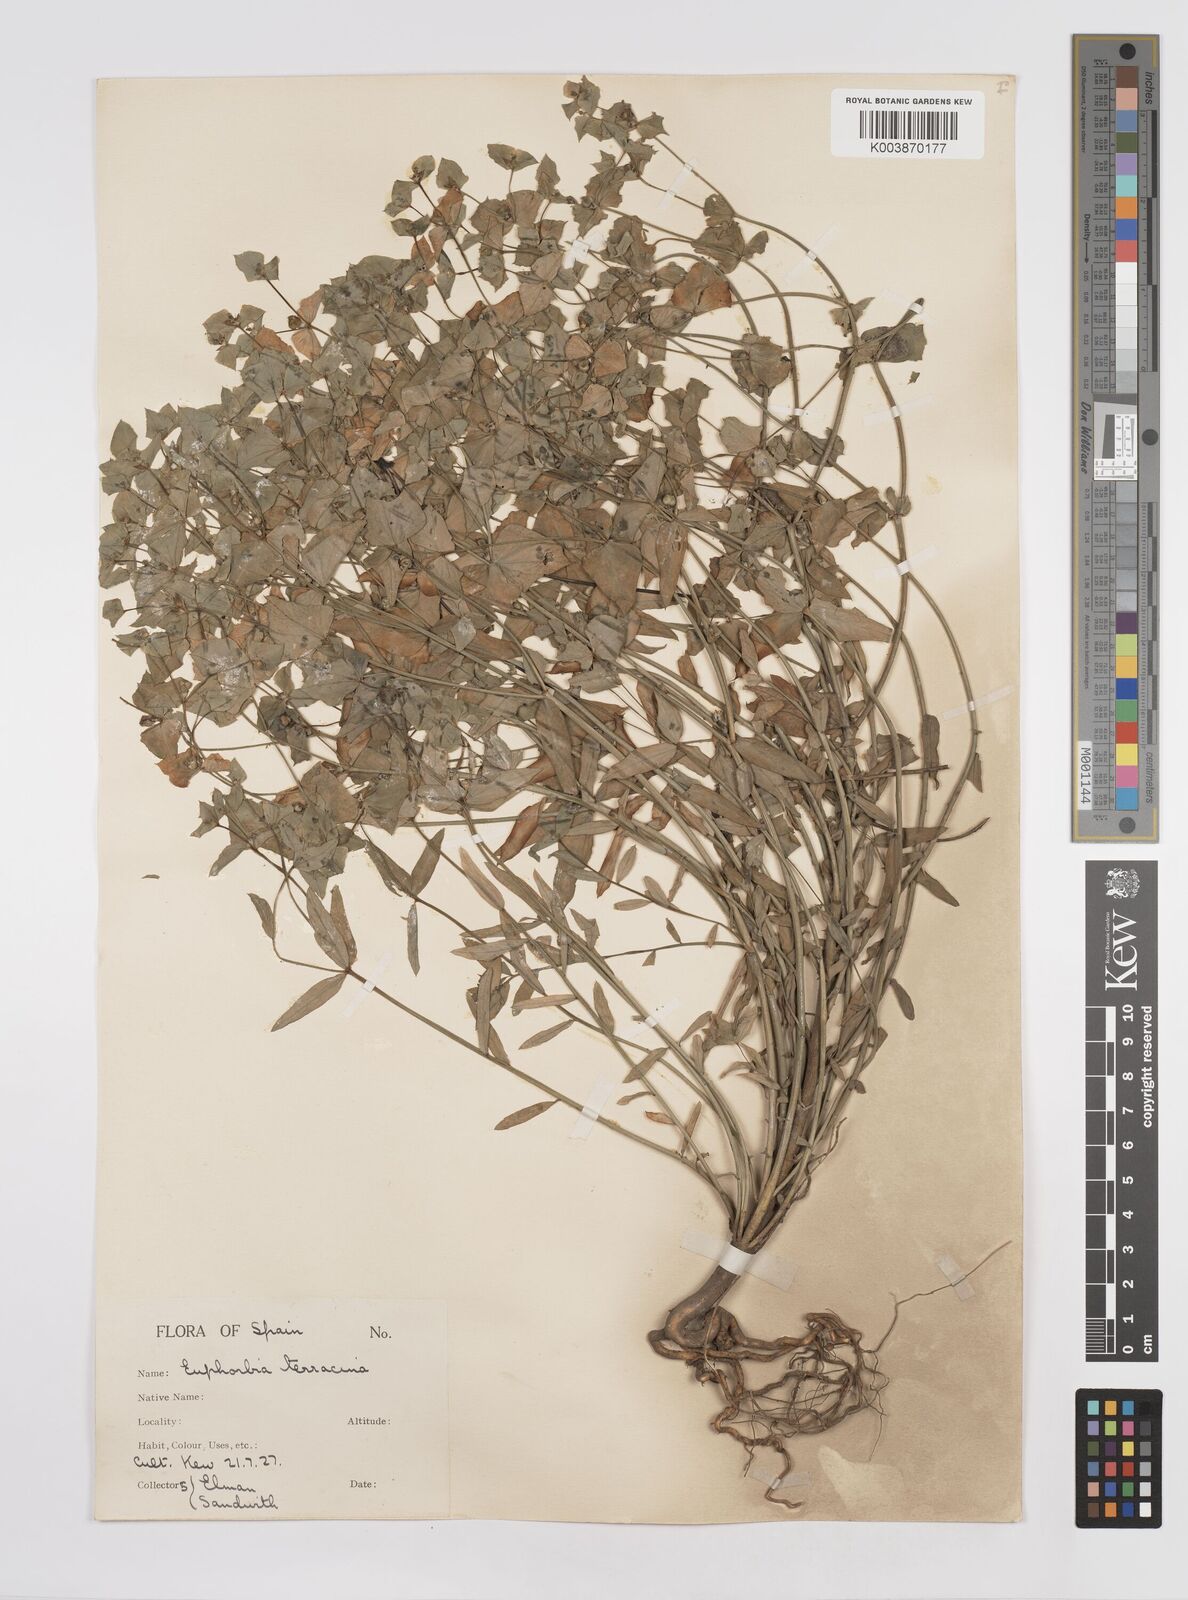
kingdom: Plantae
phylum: Tracheophyta
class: Magnoliopsida
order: Malpighiales
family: Euphorbiaceae
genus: Euphorbia
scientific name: Euphorbia terracina
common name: Geraldton carnation weed
